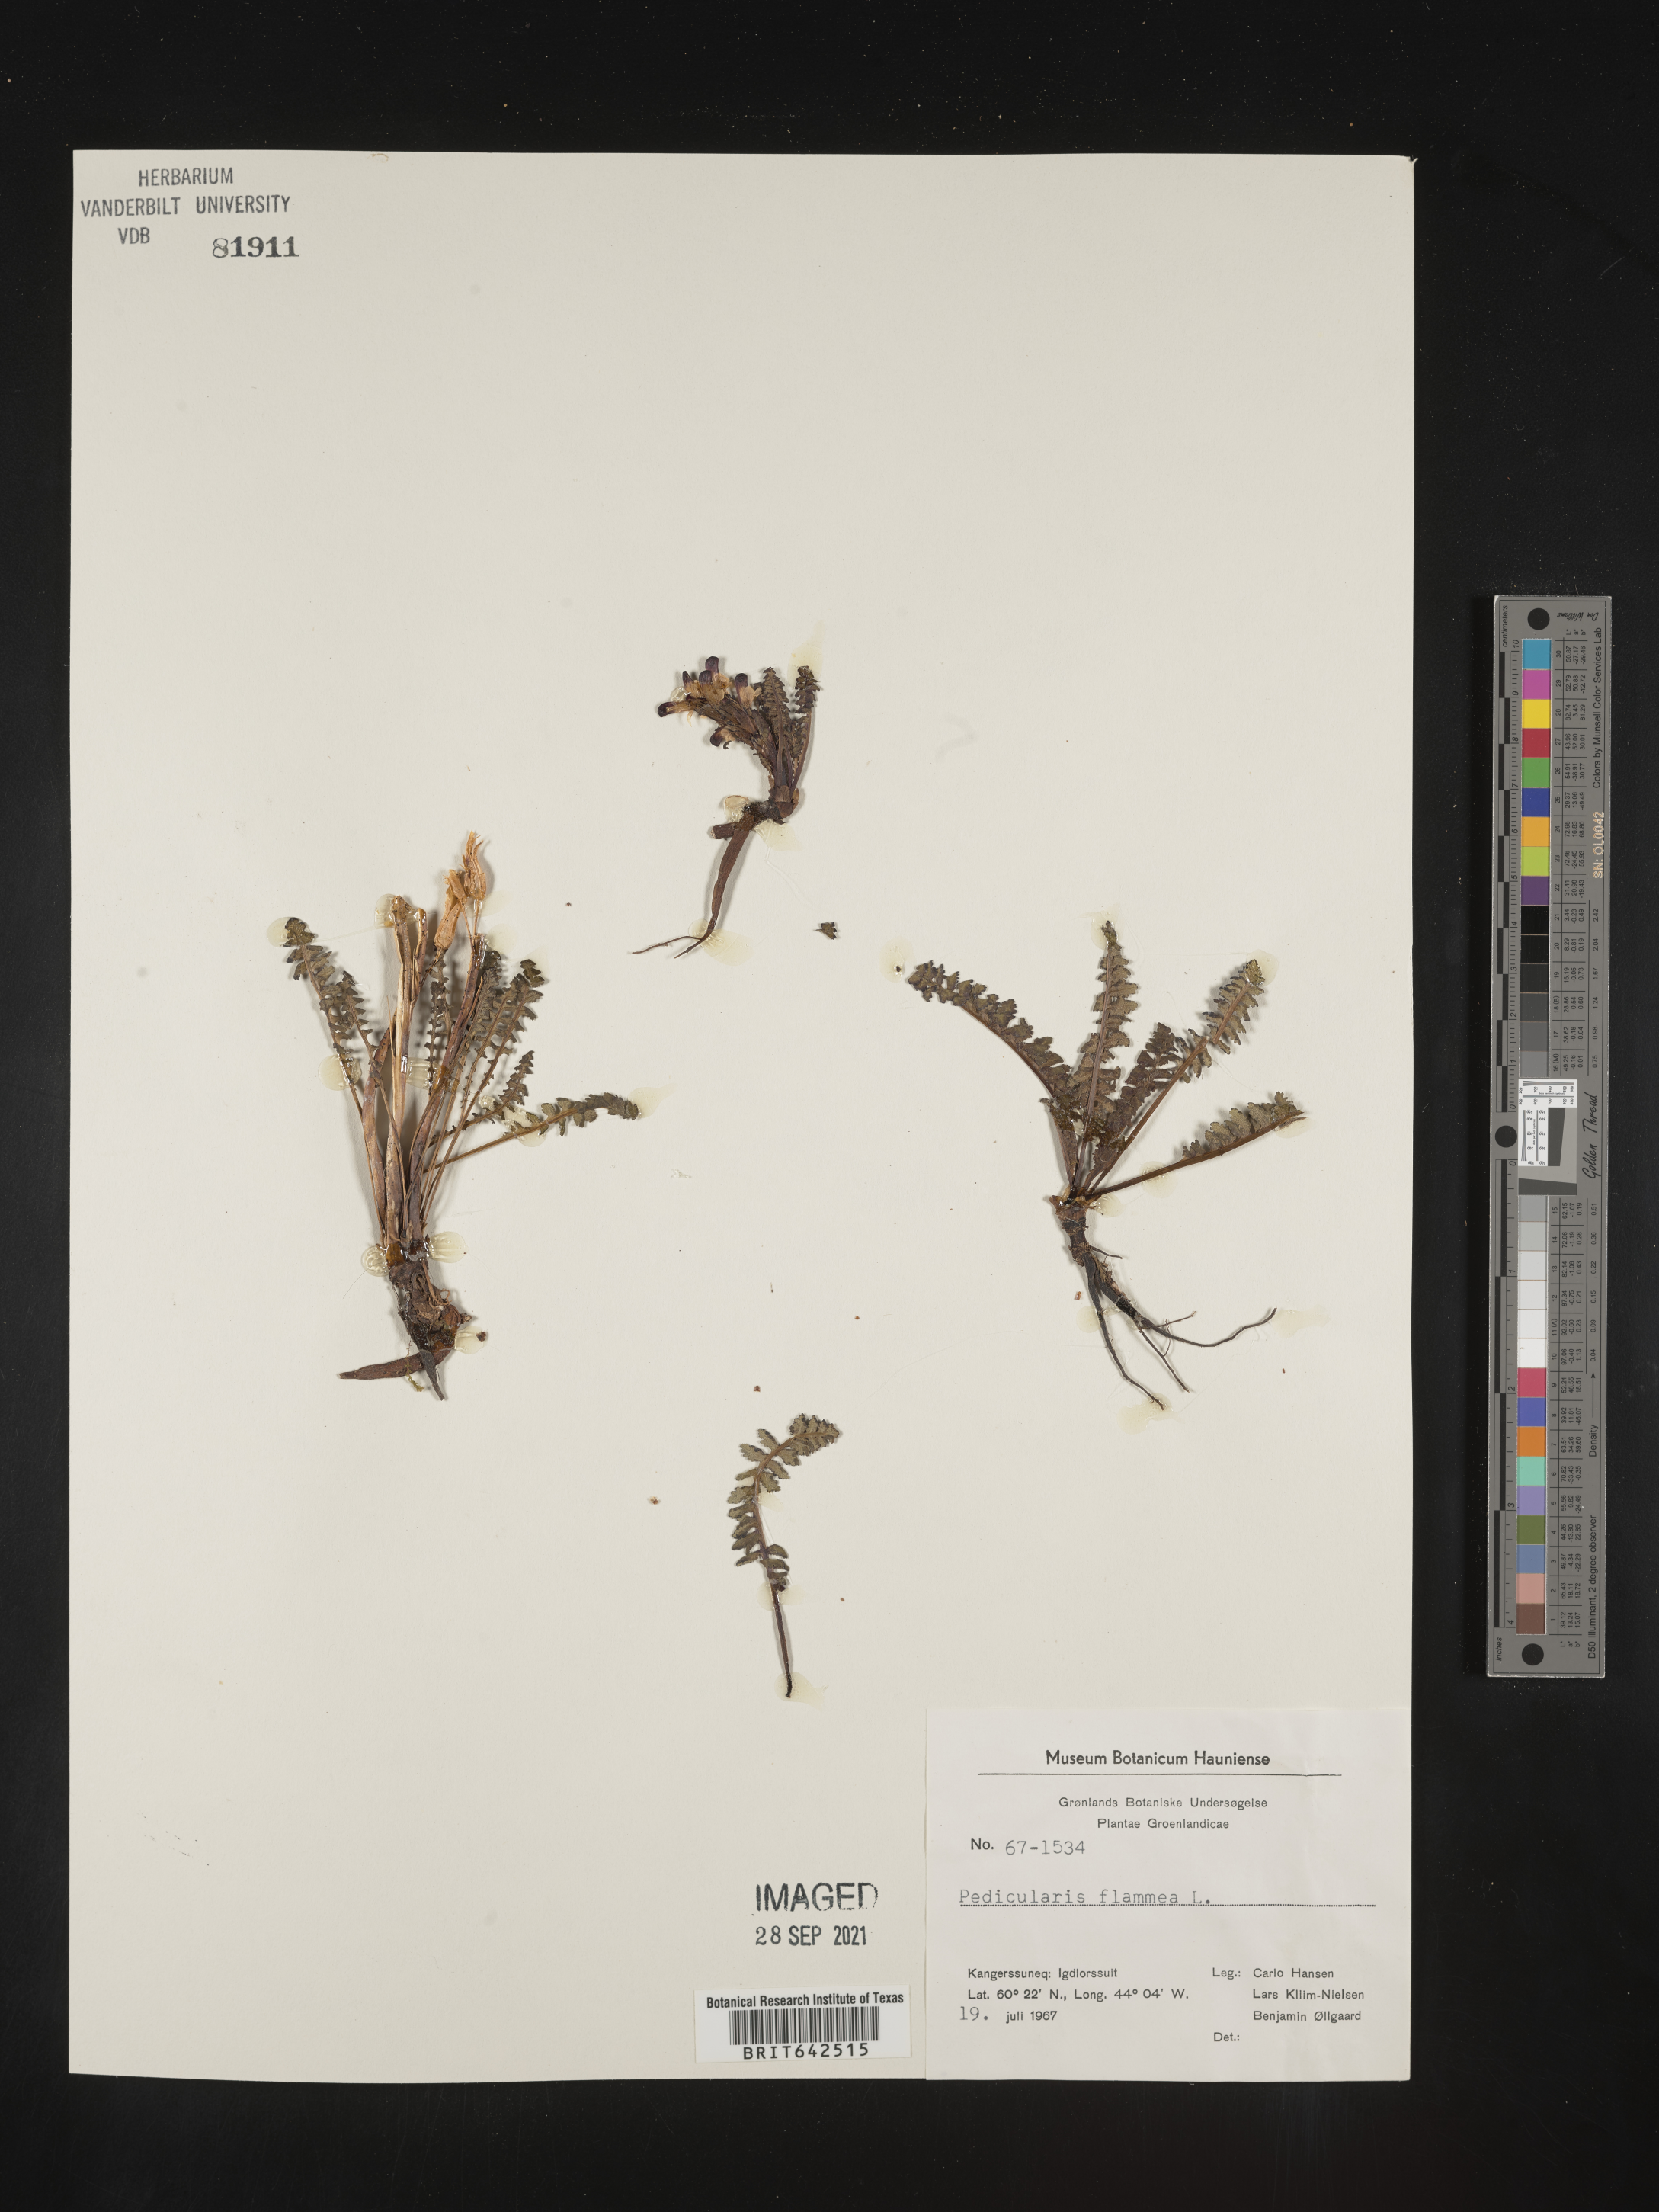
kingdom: Plantae
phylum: Tracheophyta
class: Magnoliopsida
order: Lamiales
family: Orobanchaceae
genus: Pedicularis
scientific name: Pedicularis
